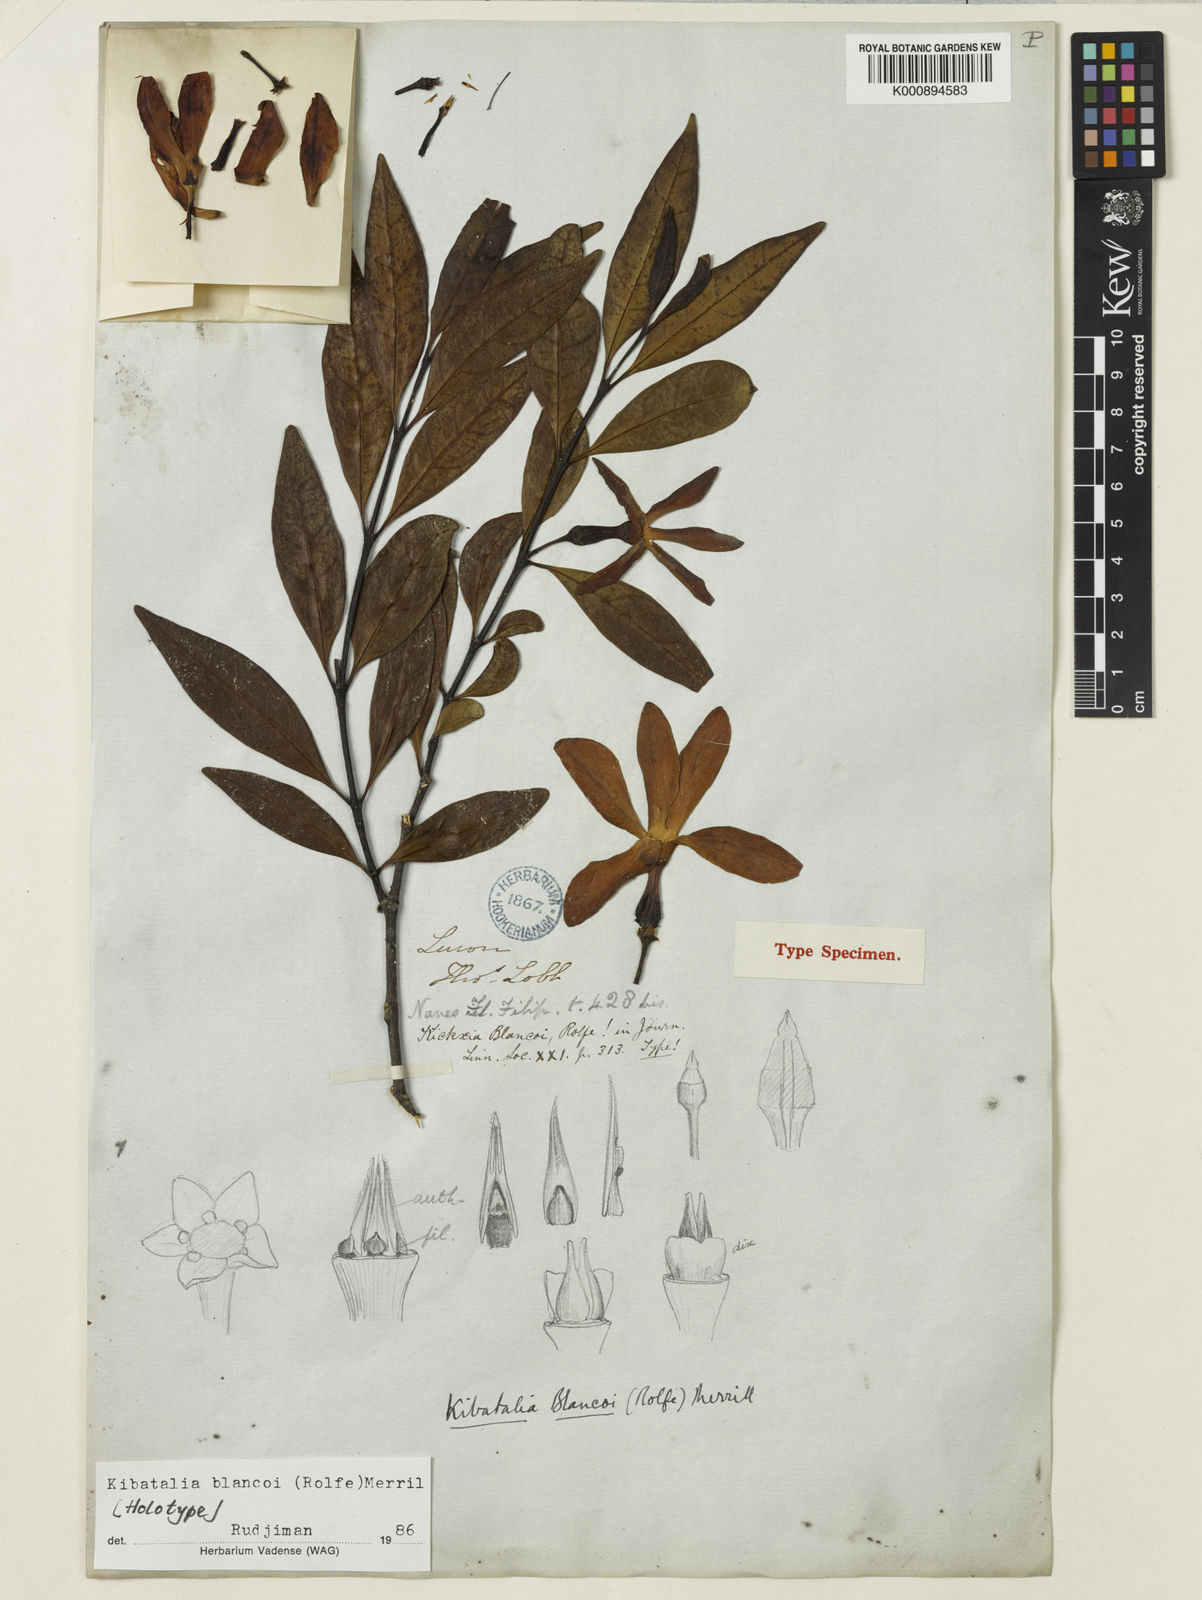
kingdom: Plantae
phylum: Tracheophyta
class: Magnoliopsida
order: Gentianales
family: Apocynaceae
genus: Kibatalia
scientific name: Kibatalia blancoi
